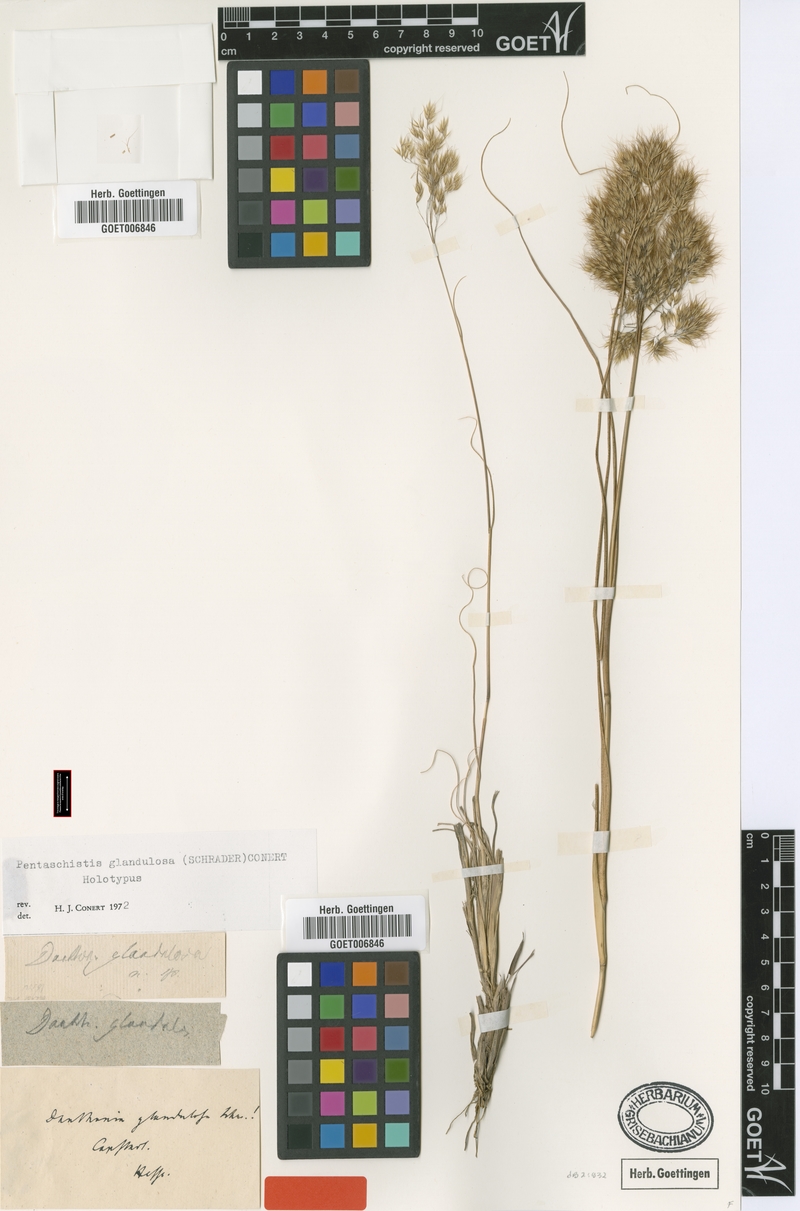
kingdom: Plantae
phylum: Tracheophyta
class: Liliopsida
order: Poales
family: Poaceae
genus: Pentameris
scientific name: Pentameris glandulosa
